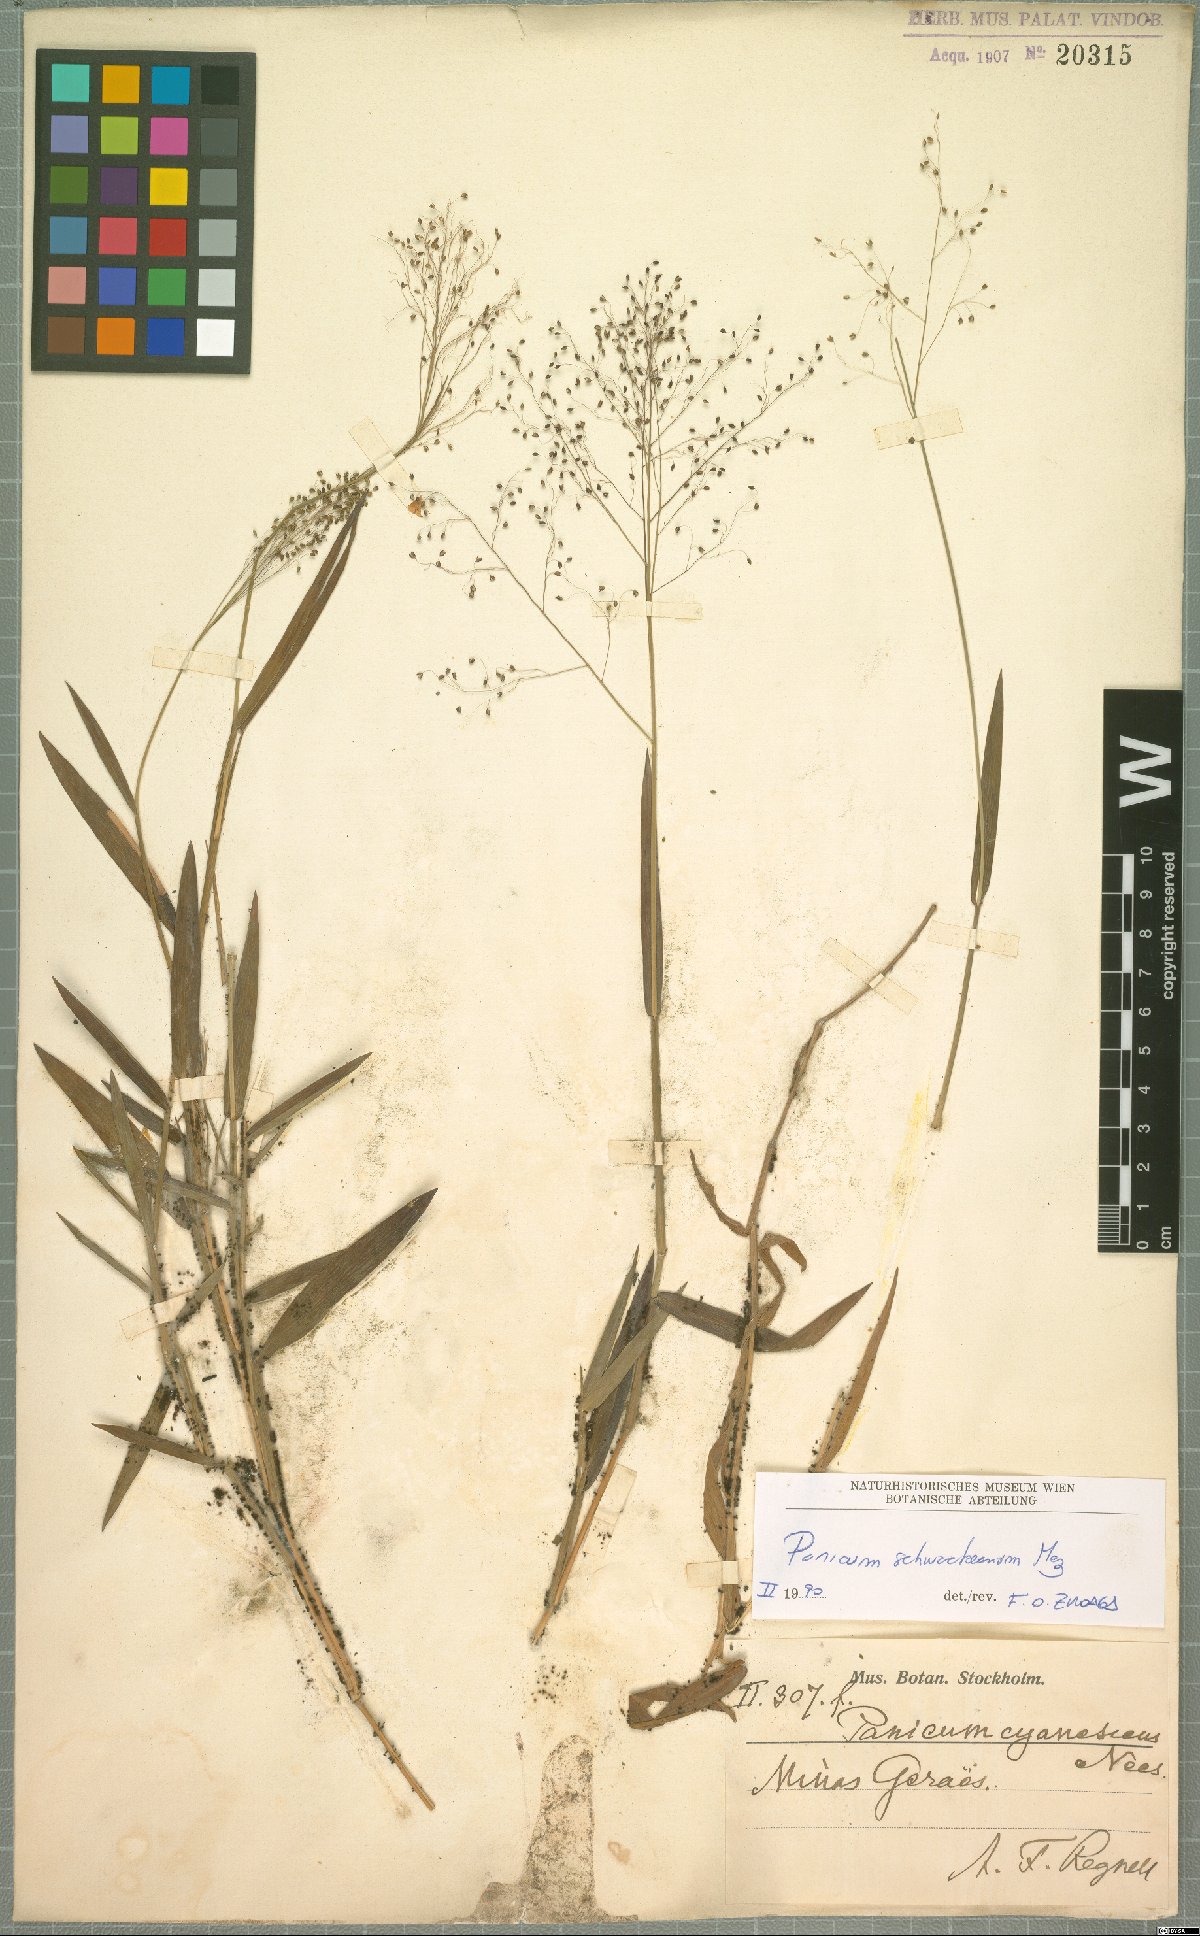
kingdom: Plantae
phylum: Tracheophyta
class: Liliopsida
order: Poales
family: Poaceae
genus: Trichanthecium
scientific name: Trichanthecium schwackeanum
